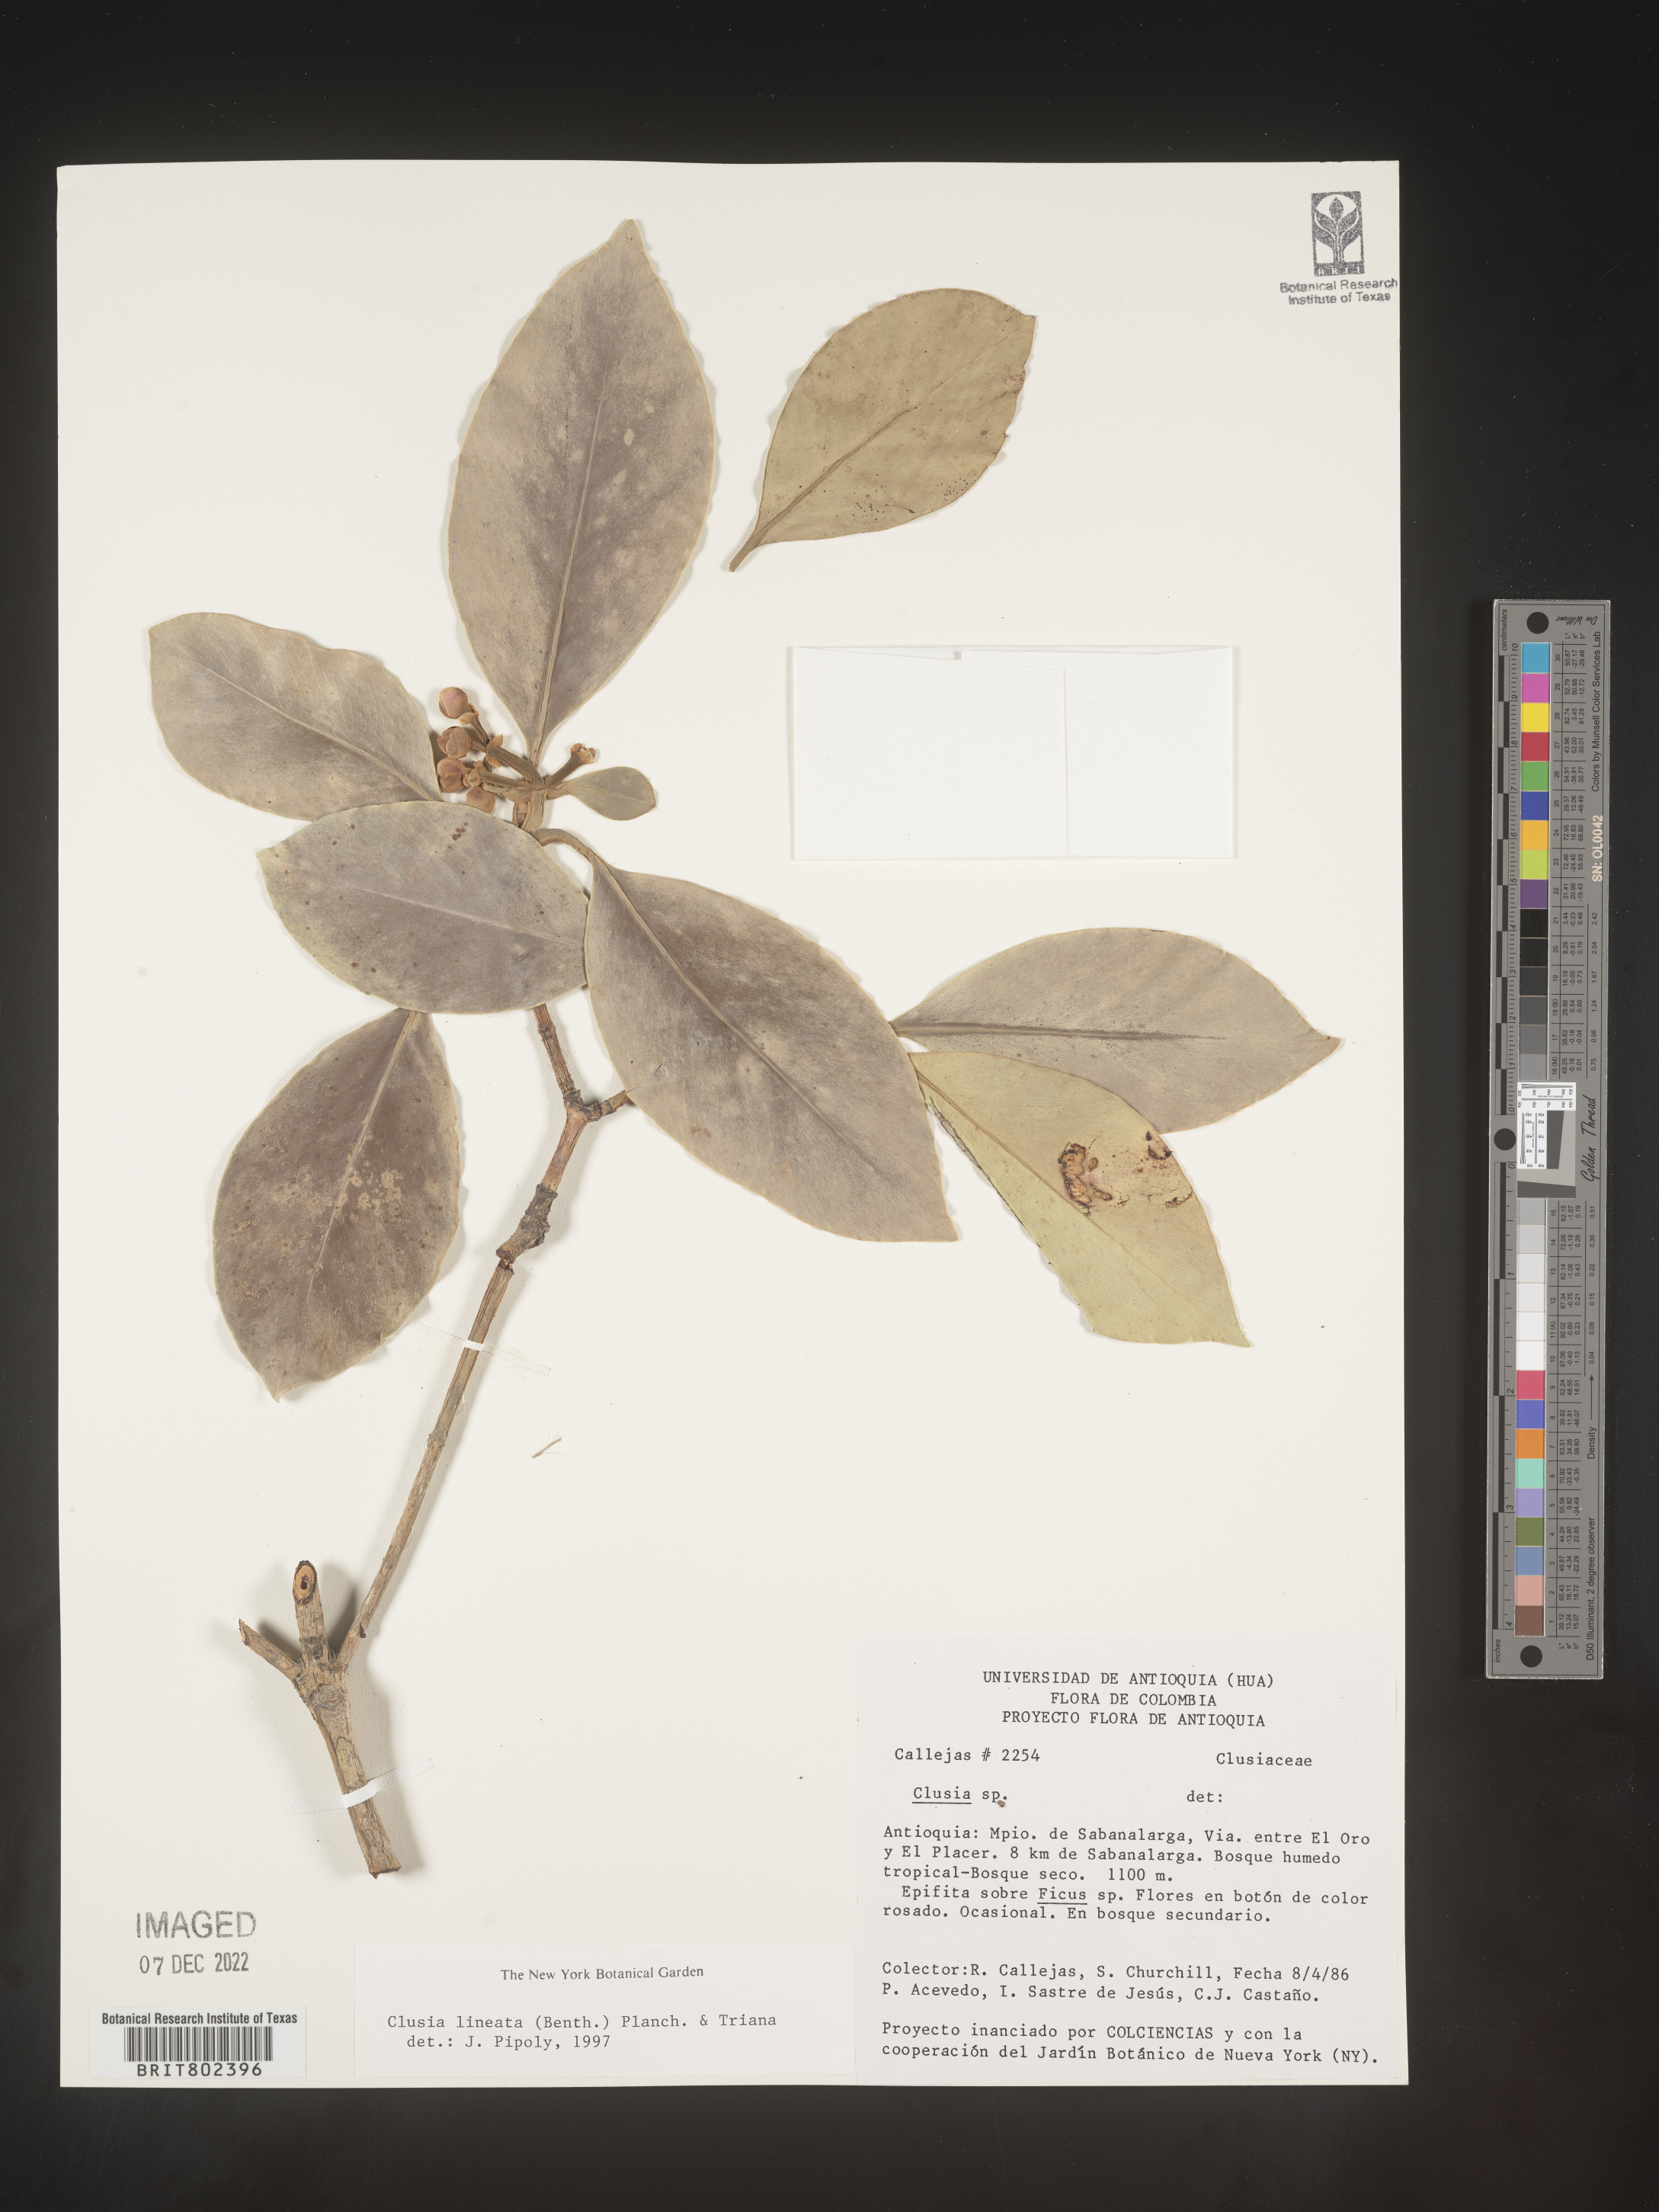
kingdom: Plantae
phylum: Tracheophyta
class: Magnoliopsida
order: Malpighiales
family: Clusiaceae
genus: Clusia
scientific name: Clusia lineata
